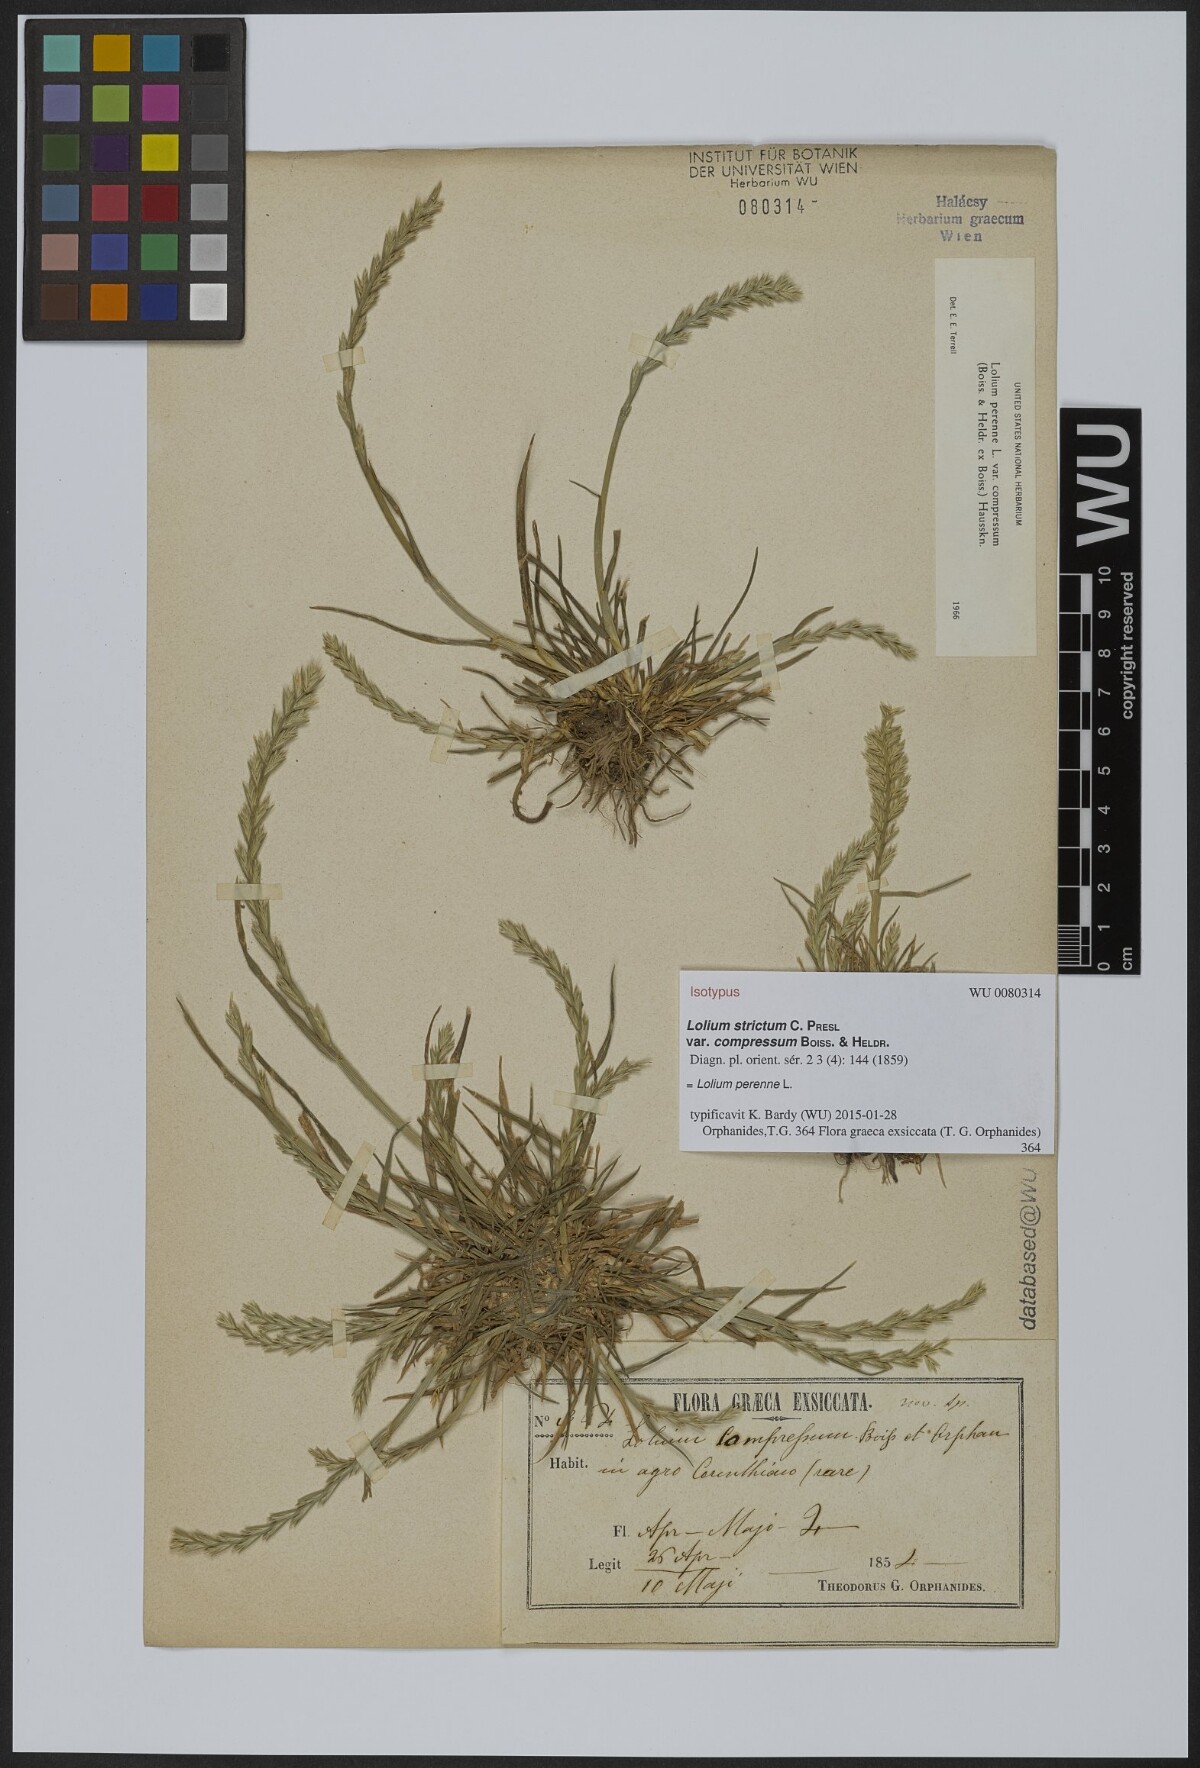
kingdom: Plantae
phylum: Tracheophyta
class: Liliopsida
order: Poales
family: Poaceae
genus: Lolium
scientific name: Lolium perenne
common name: Perennial ryegrass
